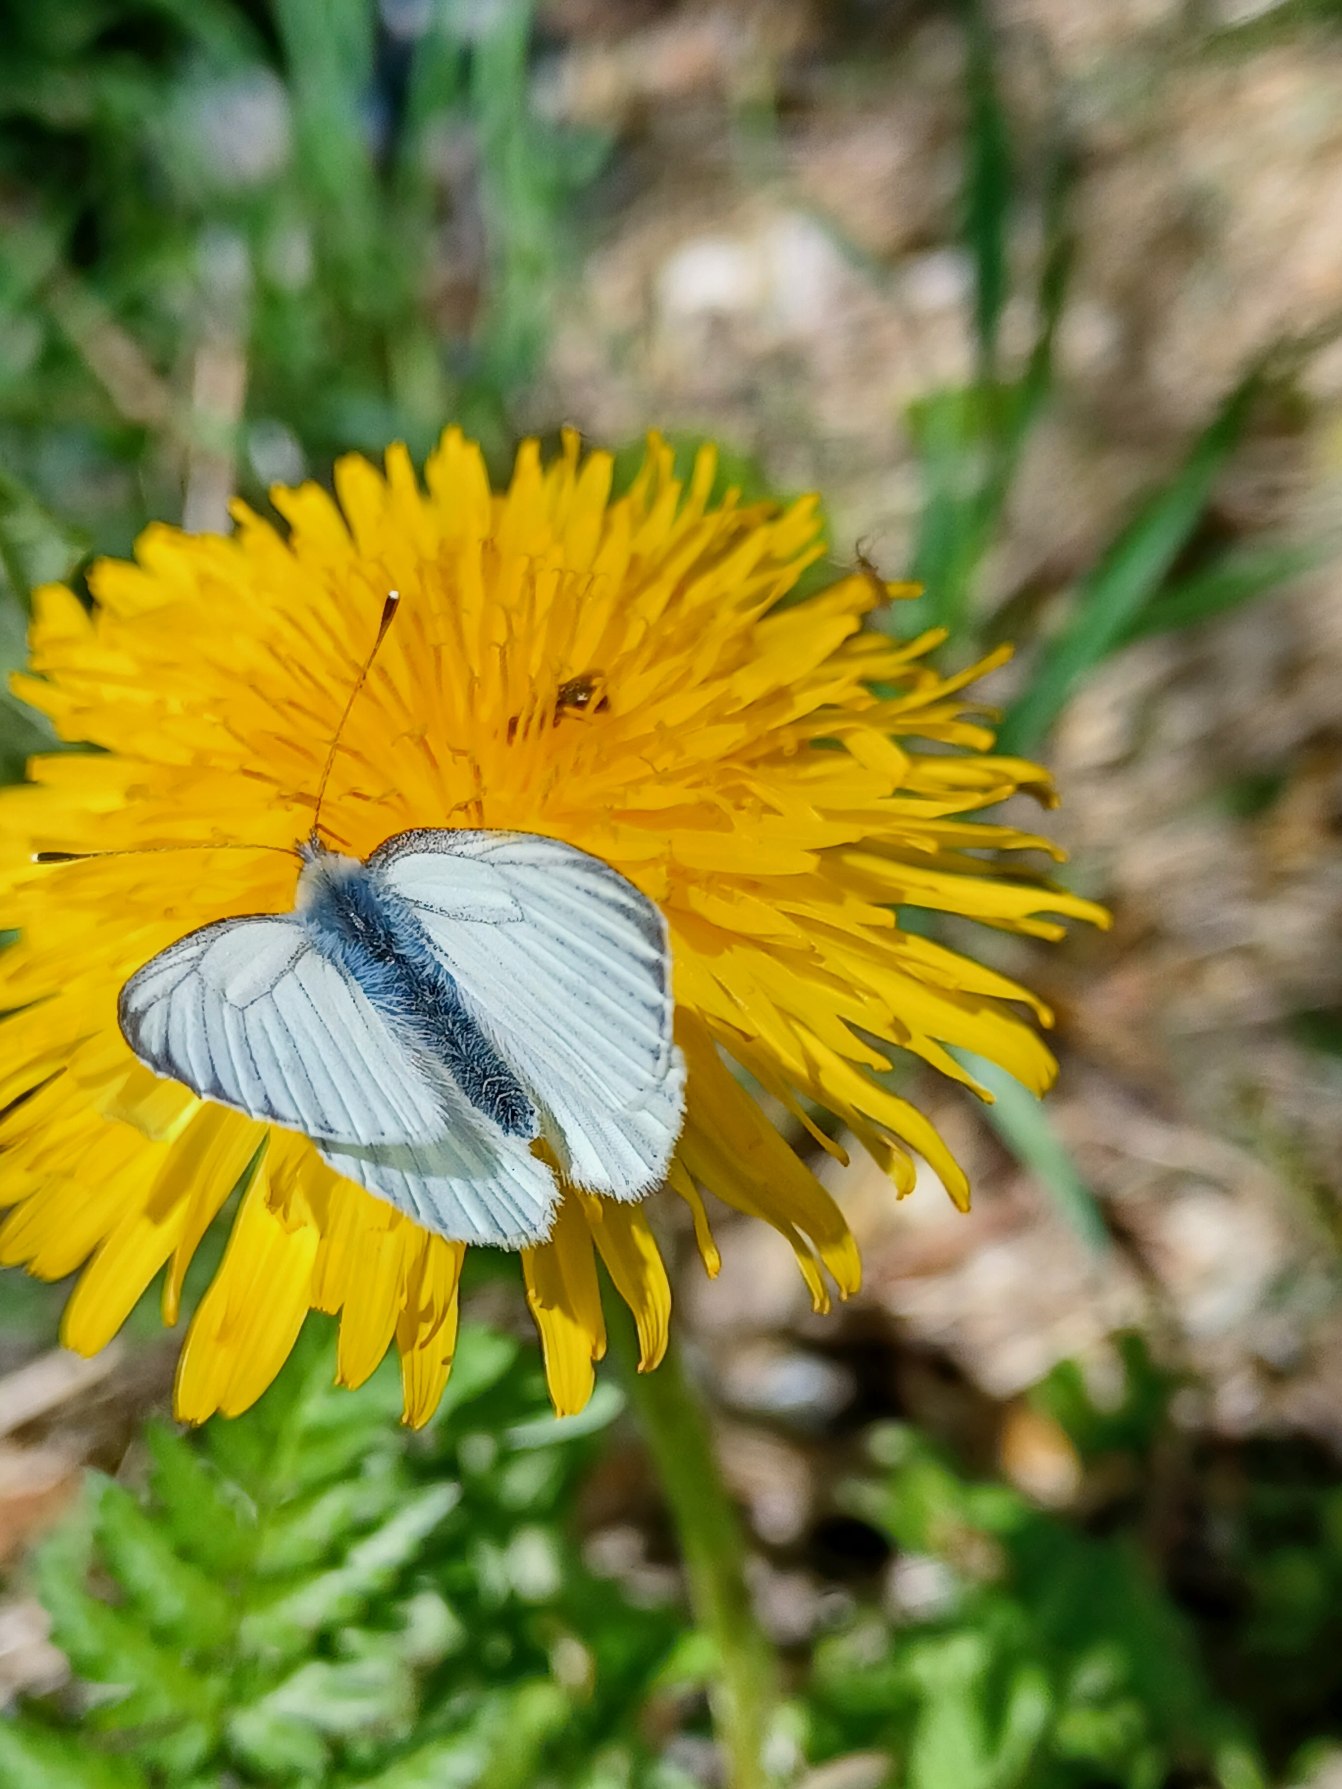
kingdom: Animalia
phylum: Arthropoda
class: Insecta
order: Lepidoptera
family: Pieridae
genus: Pieris
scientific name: Pieris napi
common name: Grønåret kålsommerfugl
